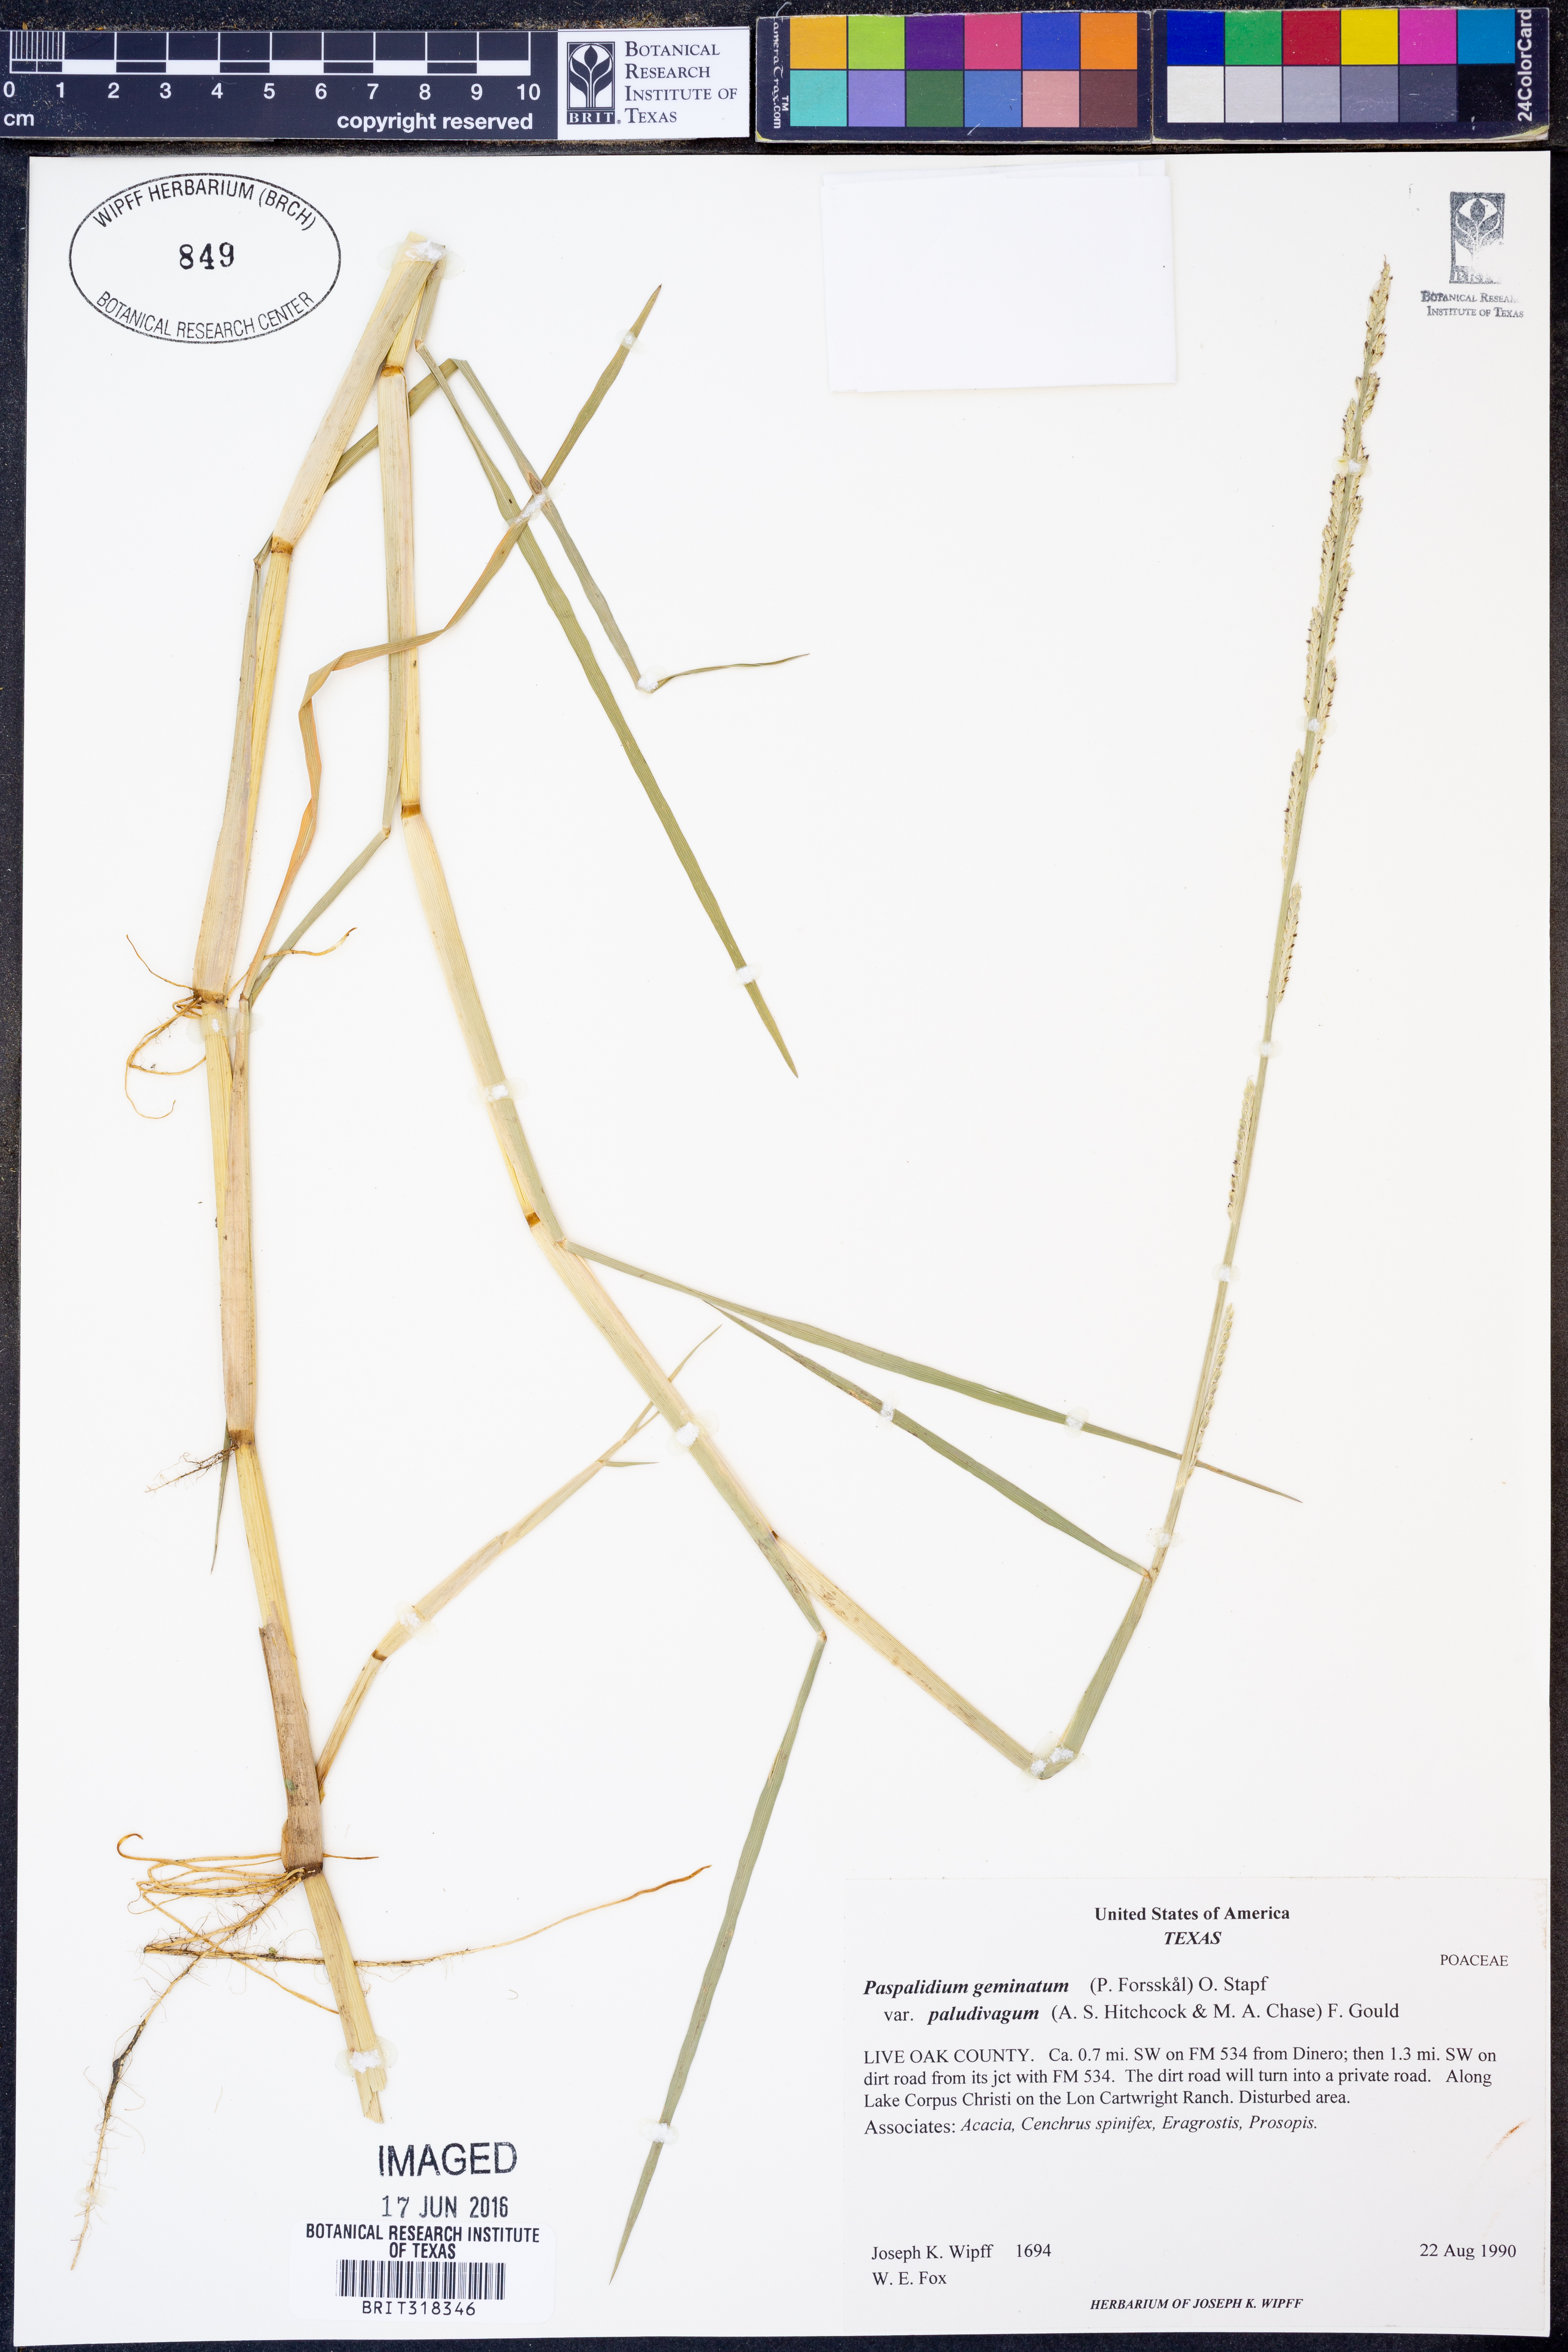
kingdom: Plantae
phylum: Tracheophyta
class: Liliopsida
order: Poales
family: Poaceae
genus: Setaria
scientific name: Setaria geminata
